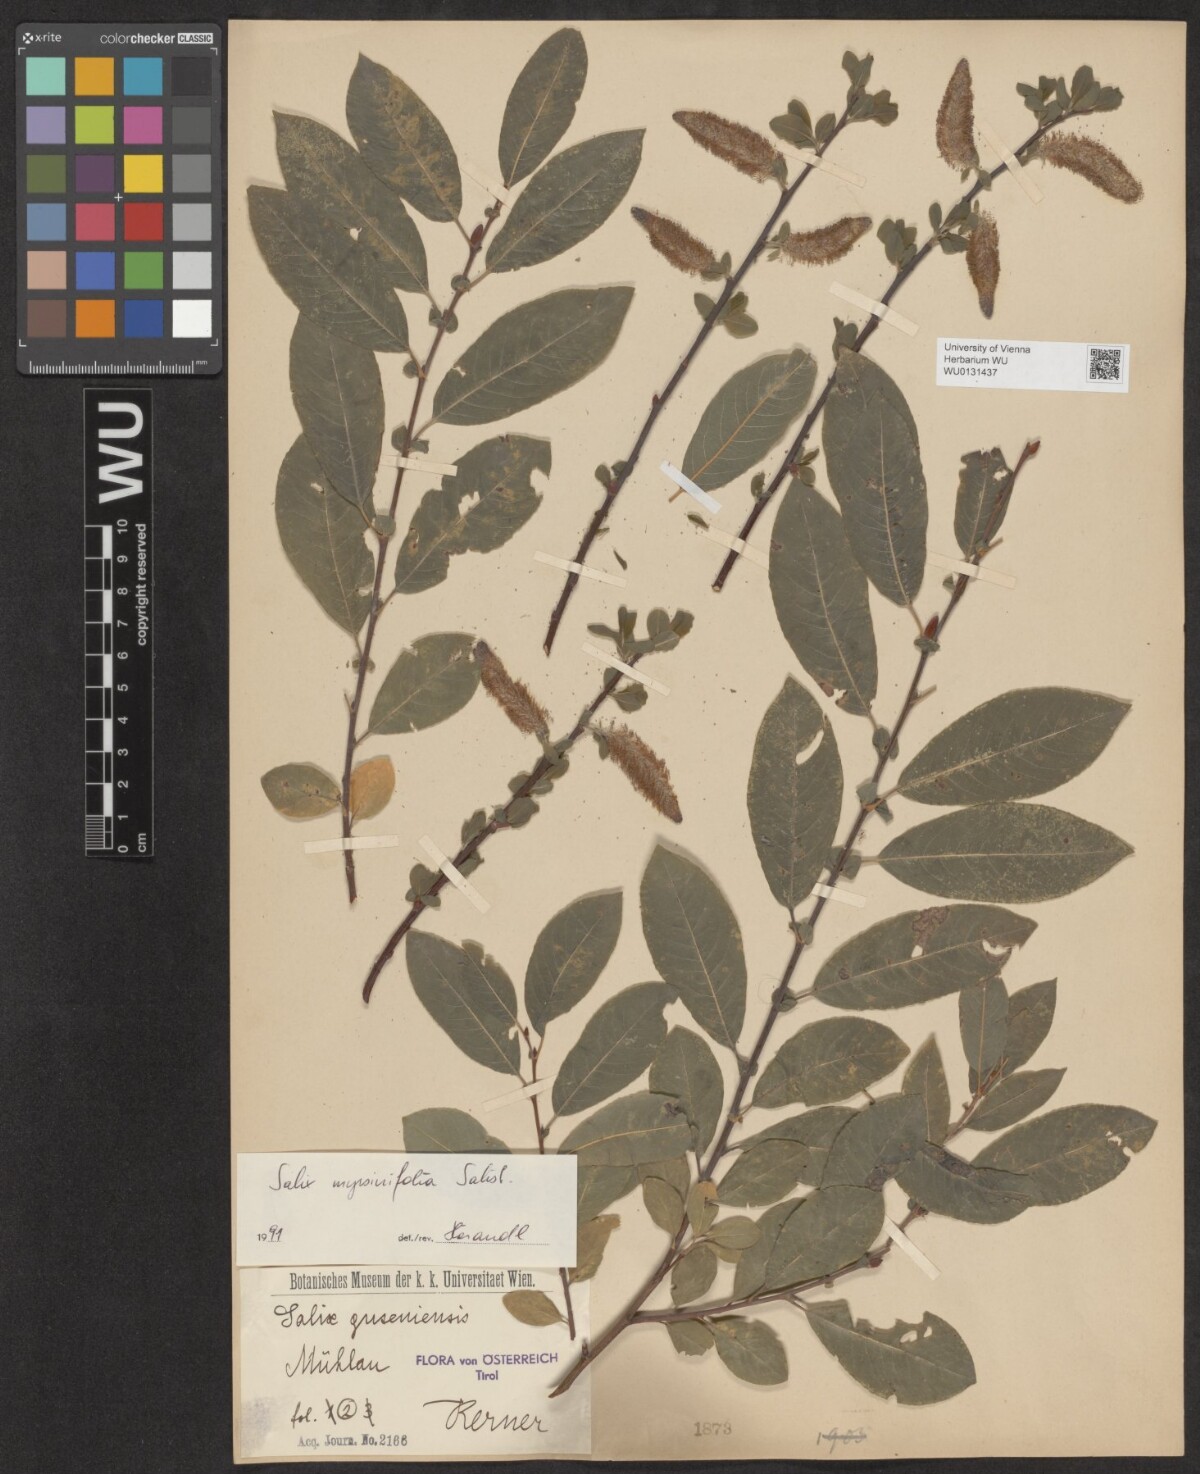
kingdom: Plantae
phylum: Tracheophyta
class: Magnoliopsida
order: Malpighiales
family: Salicaceae
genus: Salix
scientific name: Salix myrsinifolia
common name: Dark-leaved willow
